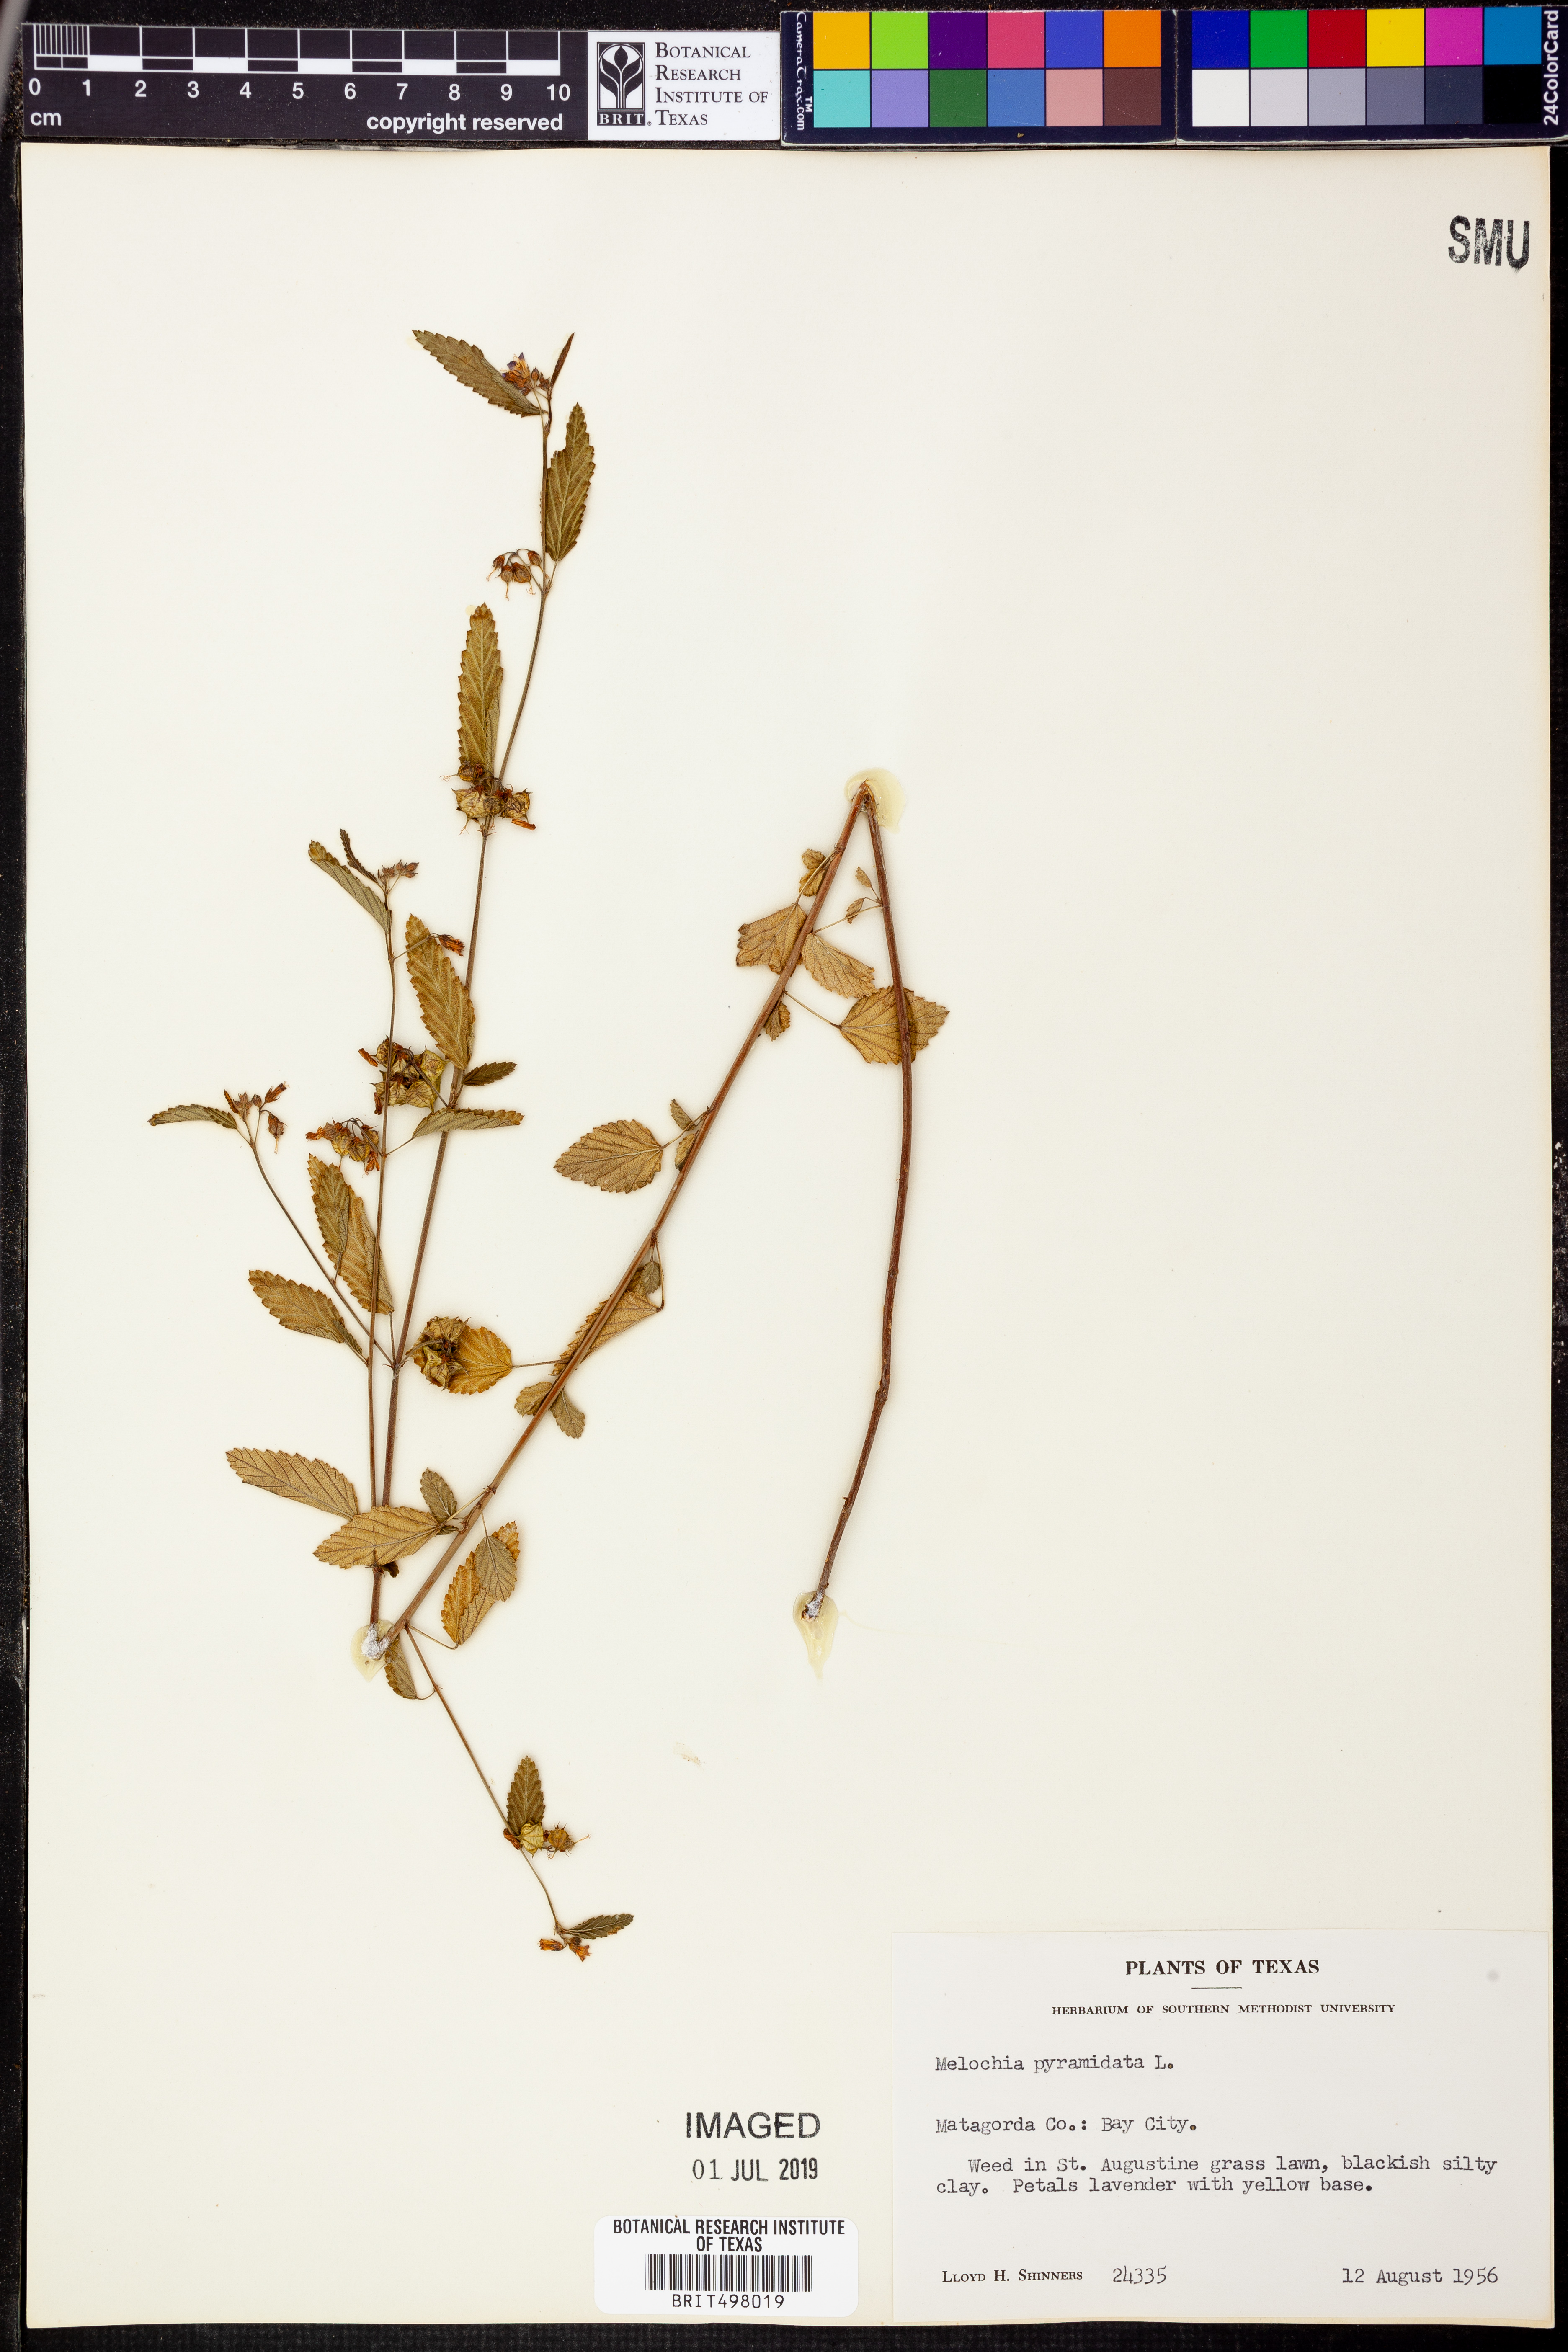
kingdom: Plantae
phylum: Tracheophyta
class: Magnoliopsida
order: Malvales
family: Malvaceae
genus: Melochia
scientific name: Melochia pyramidata
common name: Pyramidflower
